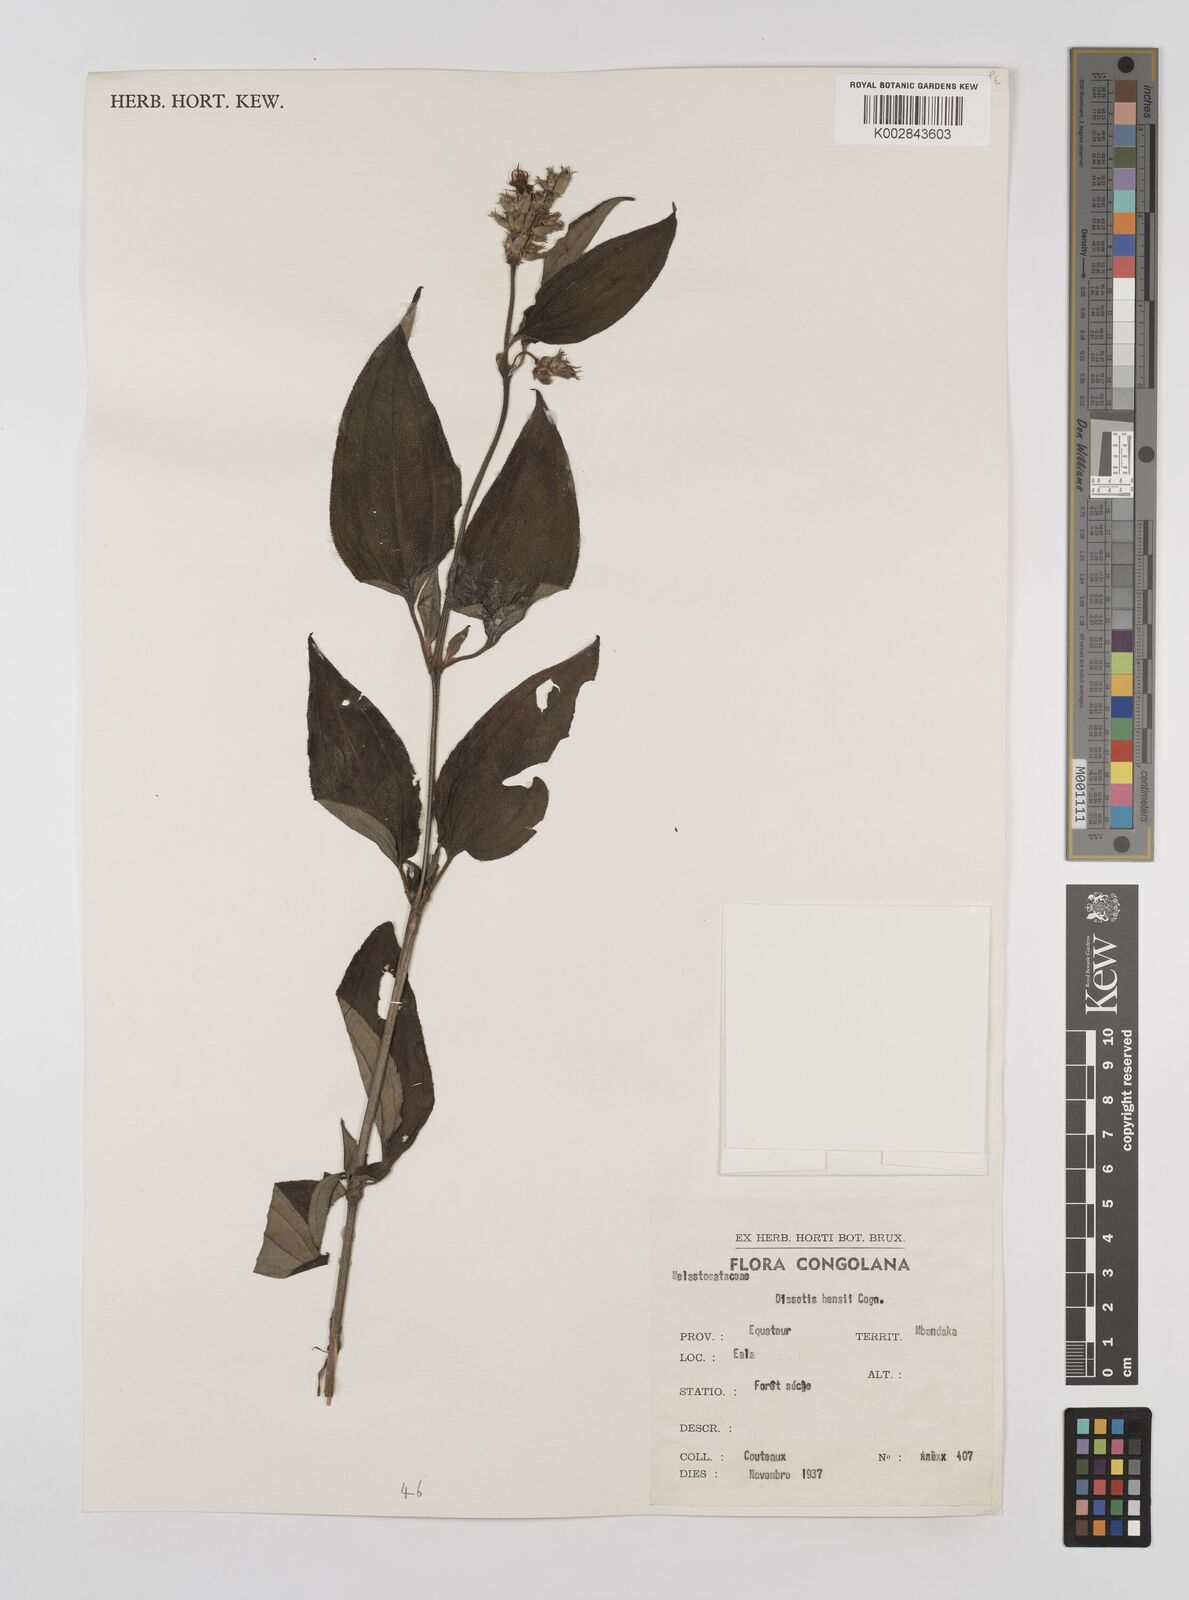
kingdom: Plantae
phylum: Tracheophyta
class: Magnoliopsida
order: Myrtales
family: Melastomataceae
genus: Dupineta
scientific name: Dupineta hensii
